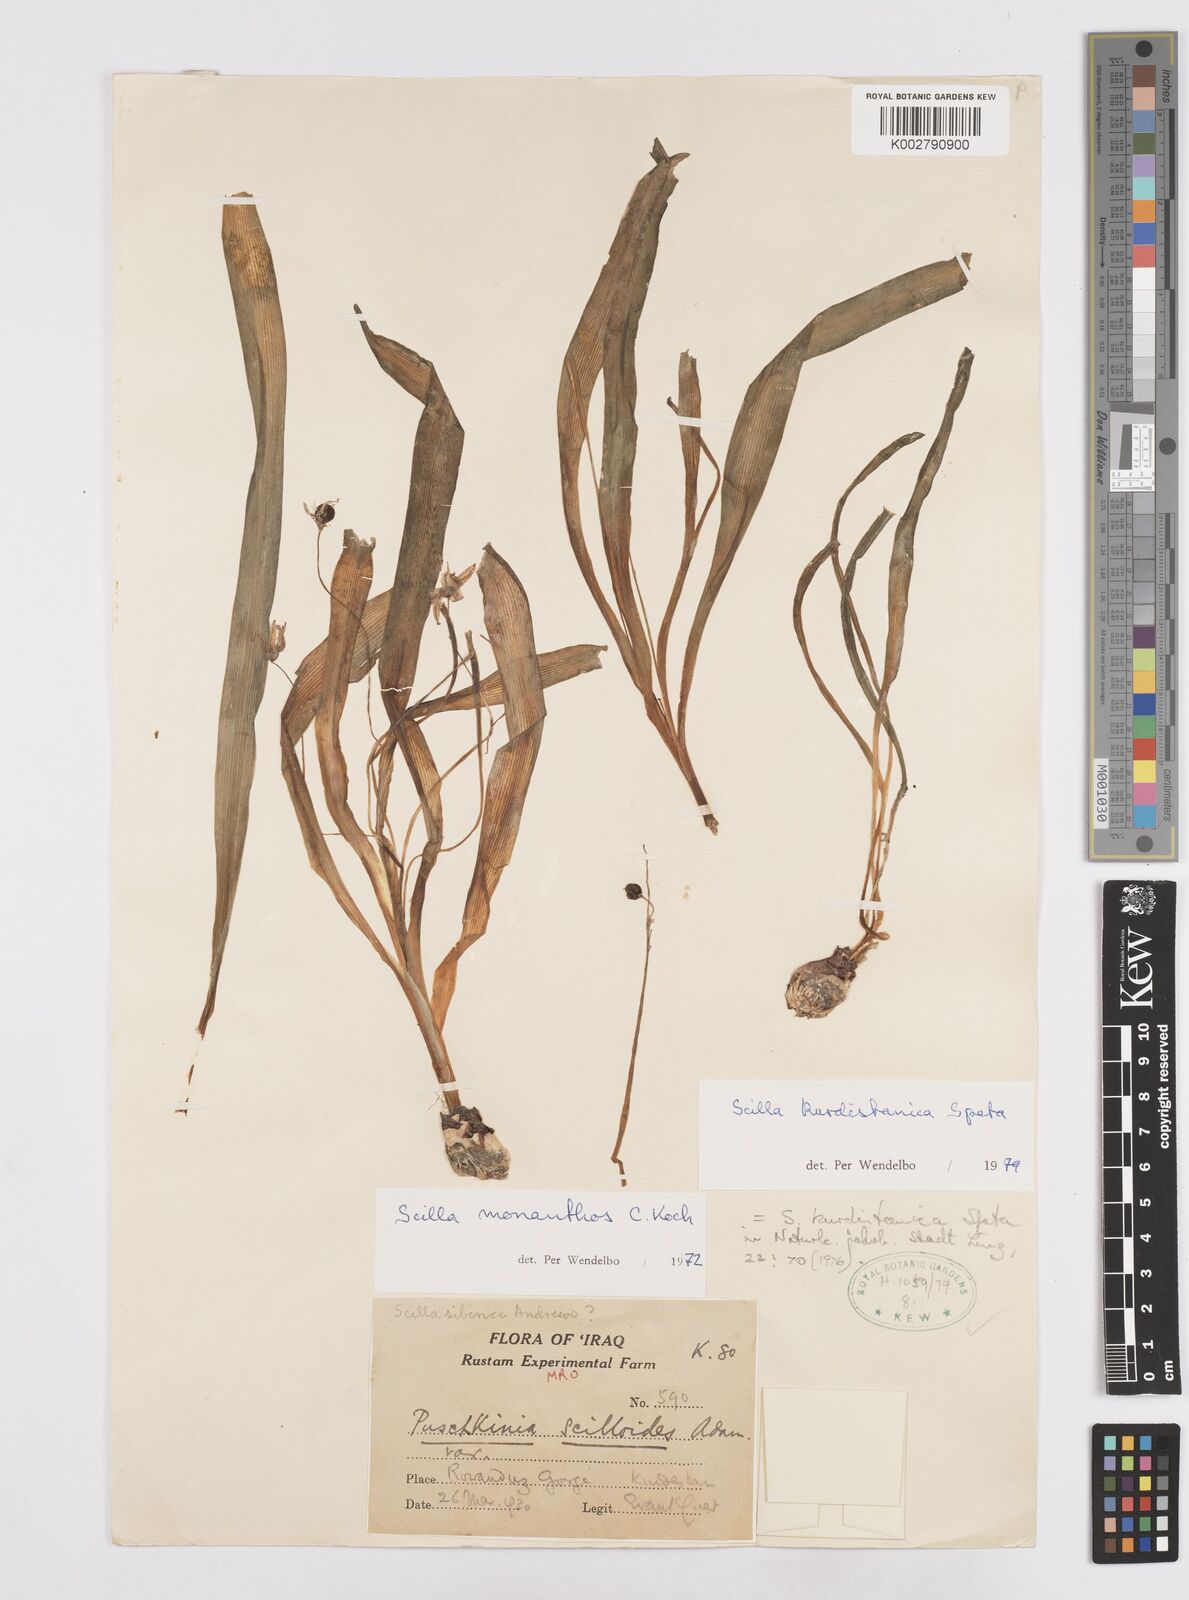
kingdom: Plantae
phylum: Tracheophyta
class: Liliopsida
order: Asparagales
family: Asparagaceae
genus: Scilla
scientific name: Scilla kurdistanica
